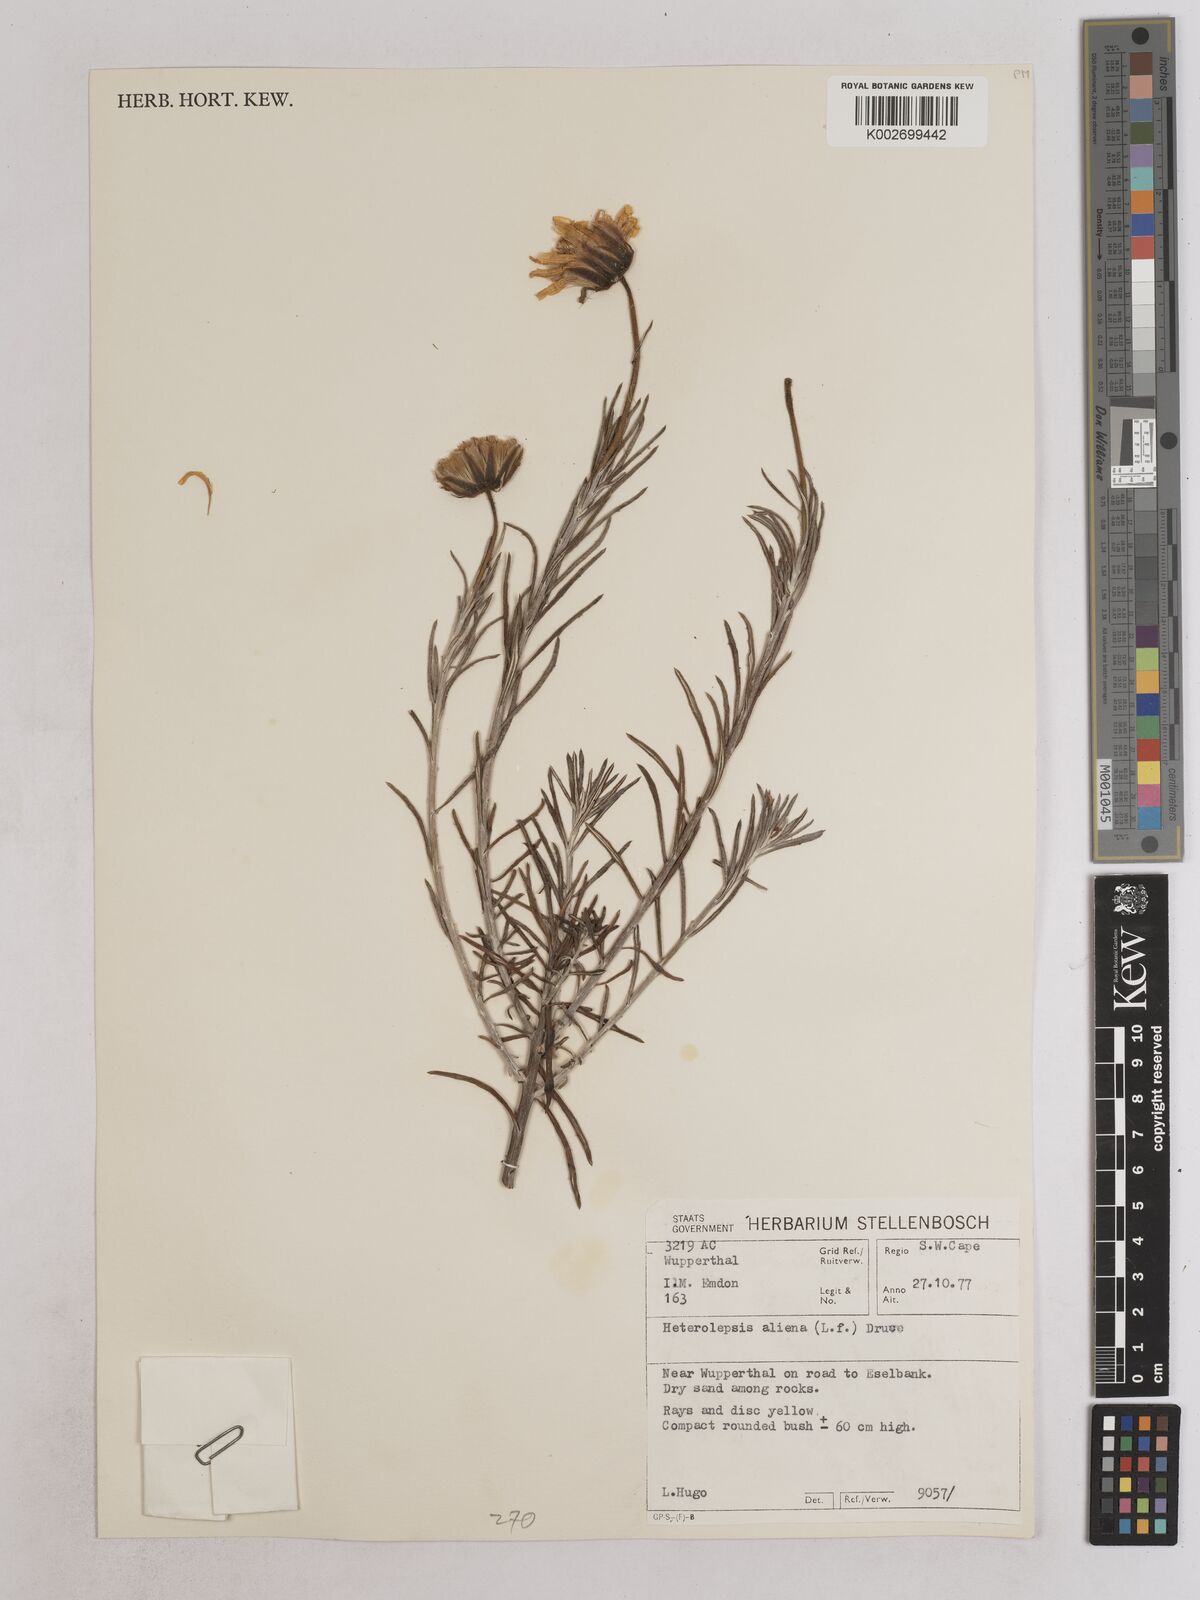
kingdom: Plantae
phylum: Tracheophyta
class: Magnoliopsida
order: Asterales
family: Asteraceae
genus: Heterolepis
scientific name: Heterolepis aliena
